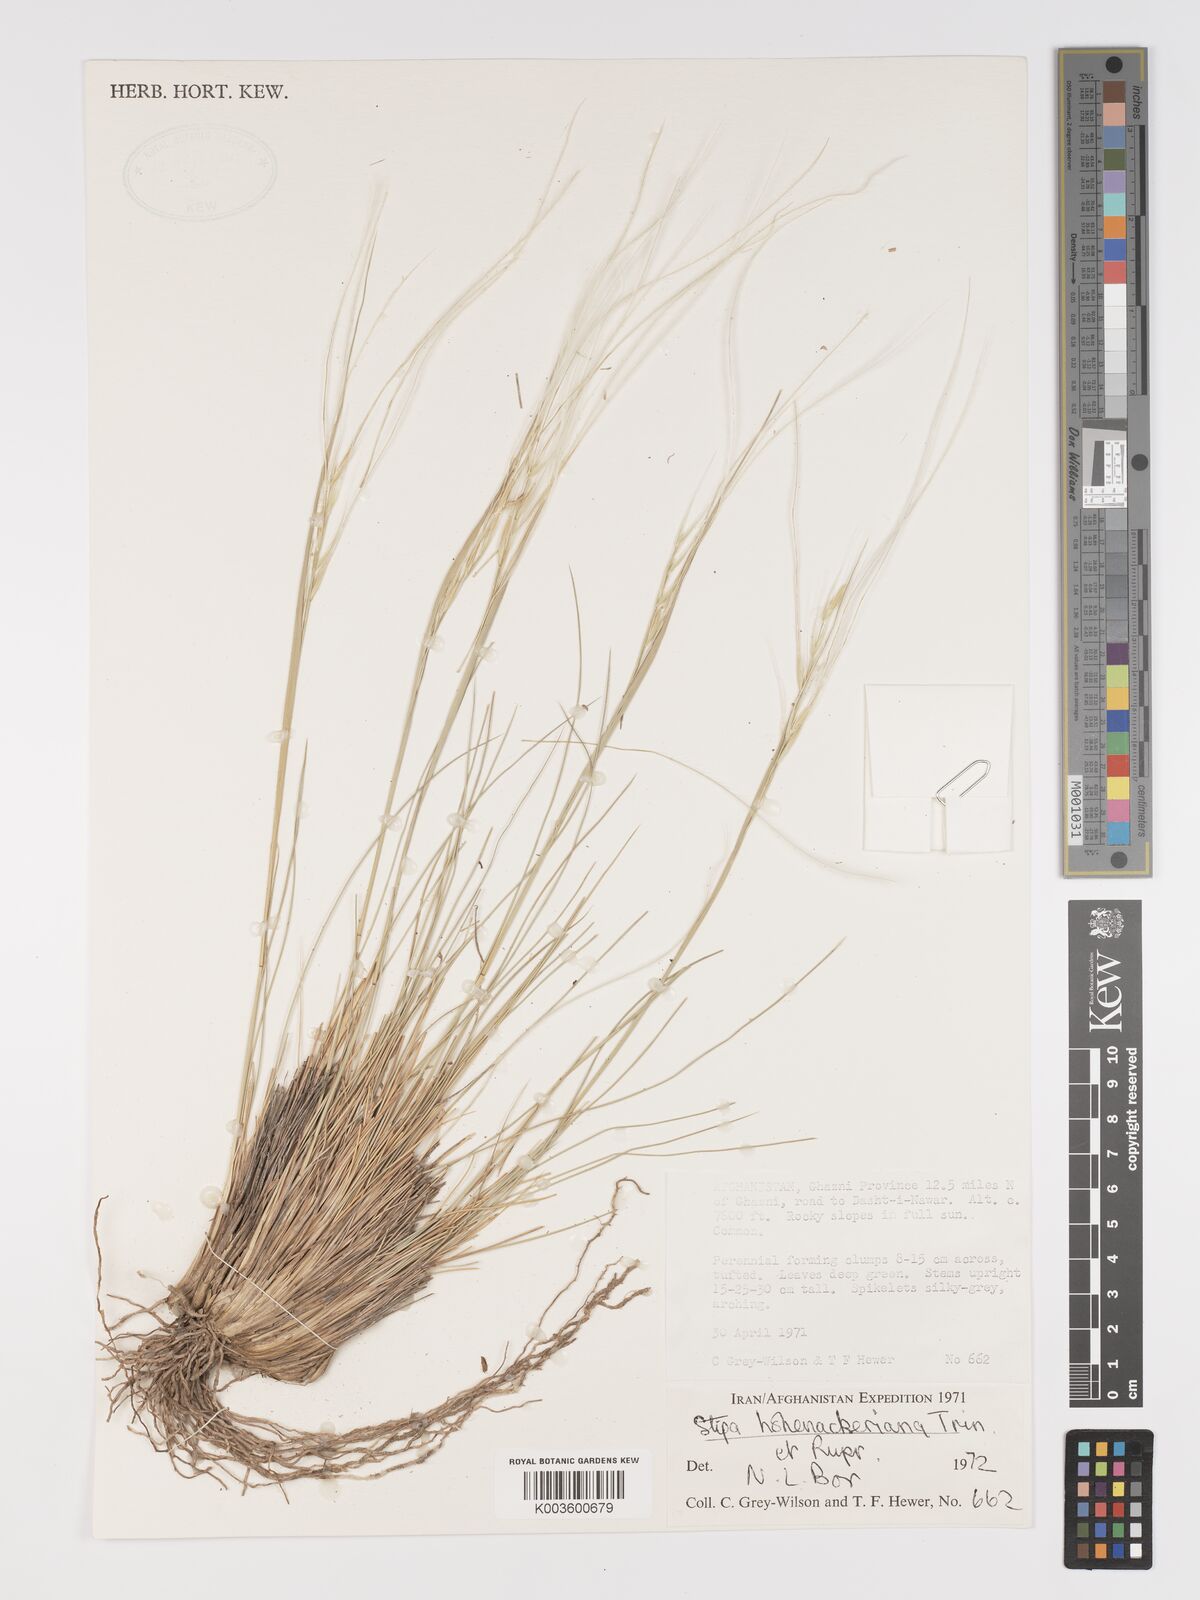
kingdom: Plantae
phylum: Tracheophyta
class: Liliopsida
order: Poales
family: Poaceae
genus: Stipa
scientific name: Stipa hohenackeriana
